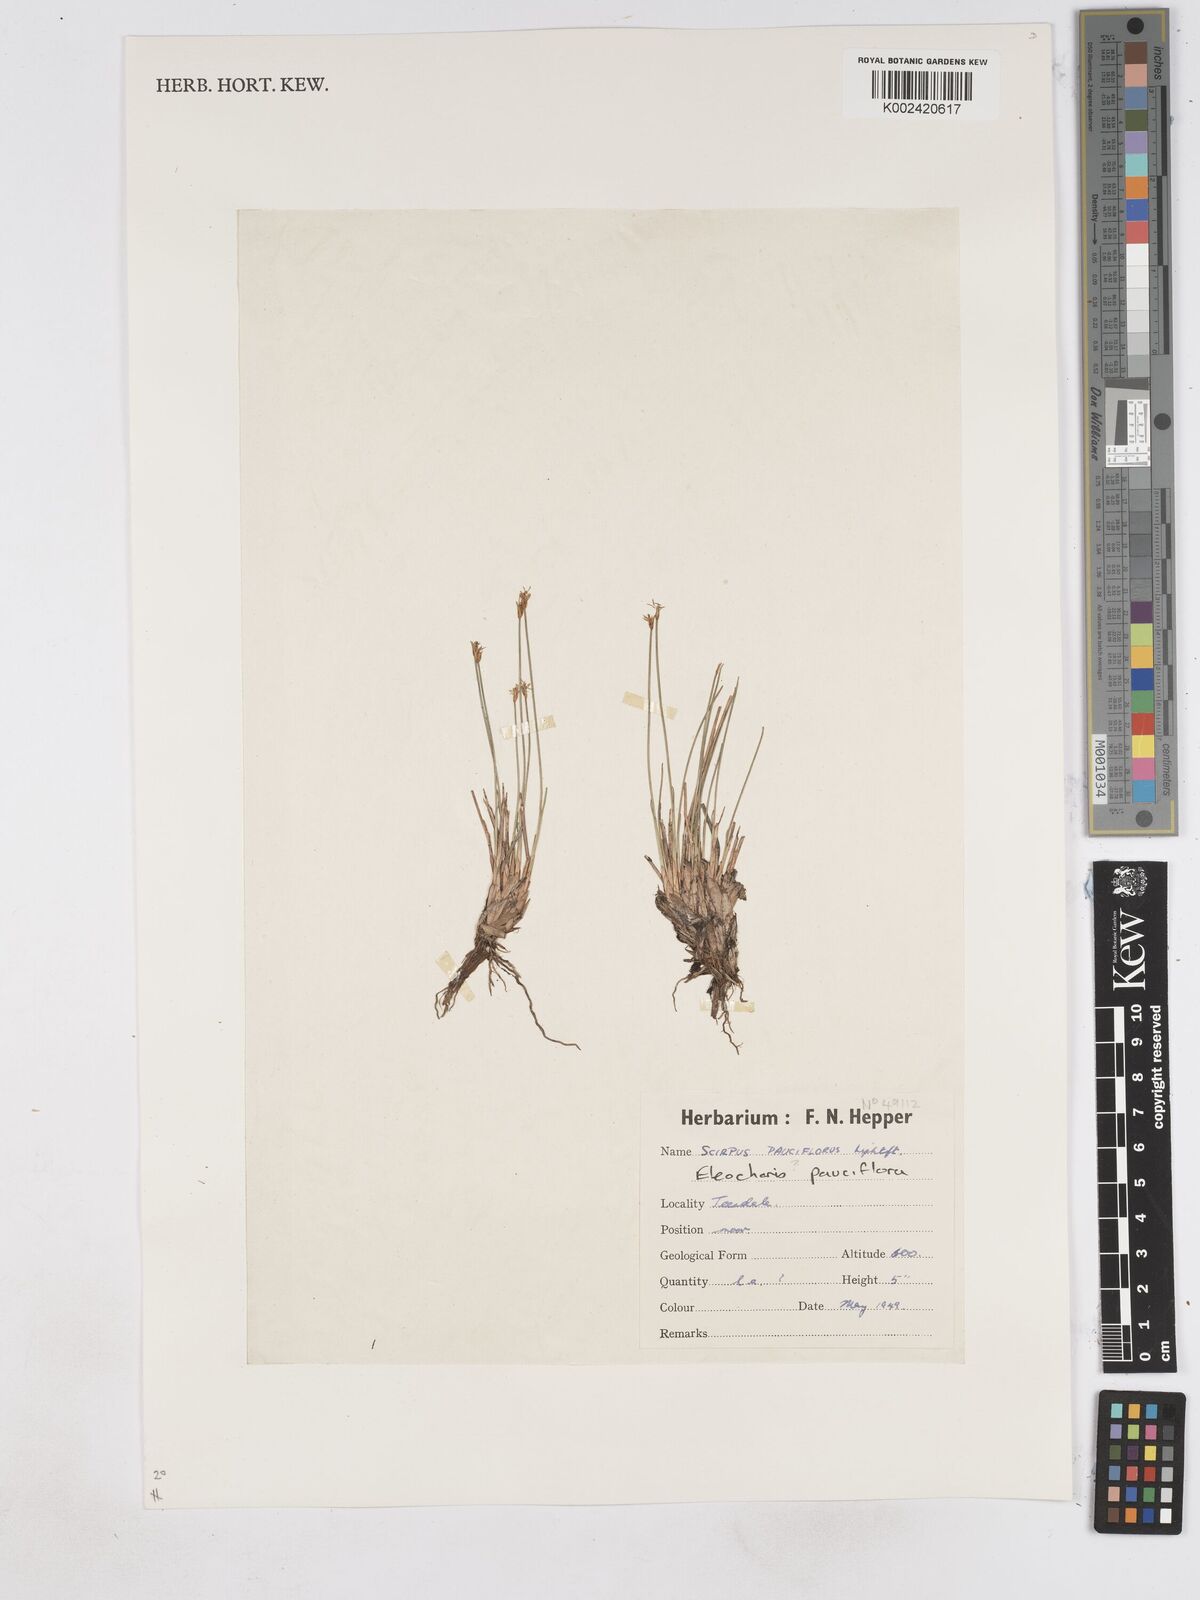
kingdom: Plantae
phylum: Tracheophyta
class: Liliopsida
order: Poales
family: Cyperaceae
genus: Eleocharis
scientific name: Eleocharis quinqueflora
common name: Few-flowered spike-rush
